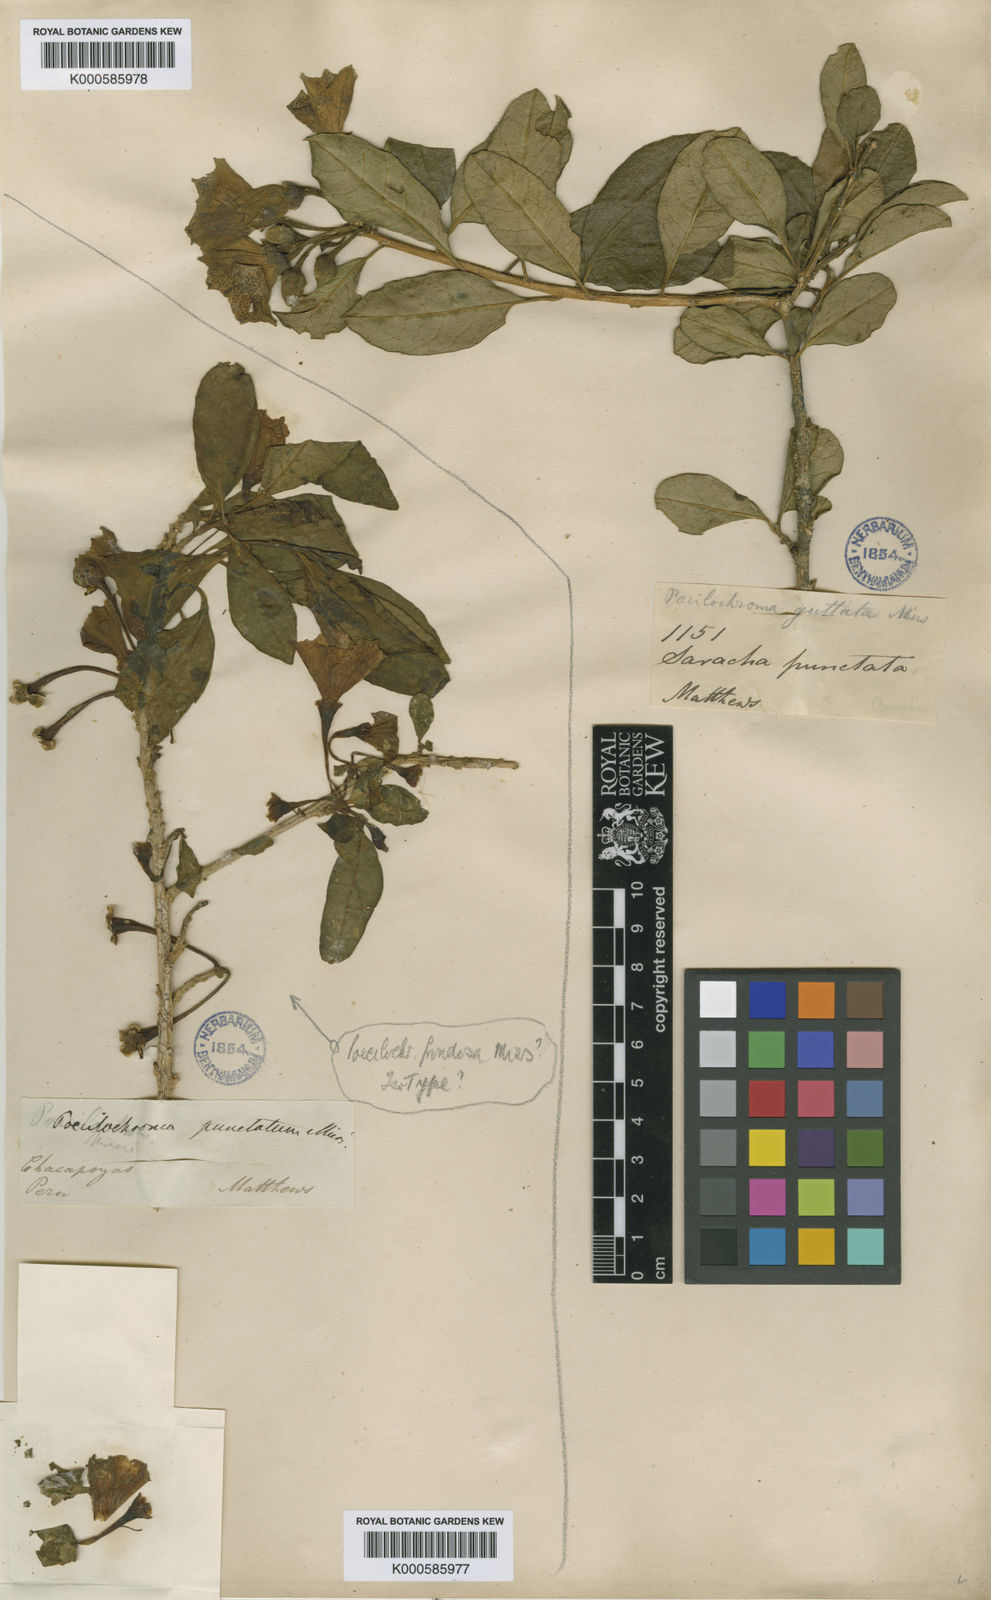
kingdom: Animalia
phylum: Arthropoda
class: Insecta
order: Hemiptera
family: Pentatomidae
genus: Poecilochroma
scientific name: Poecilochroma
